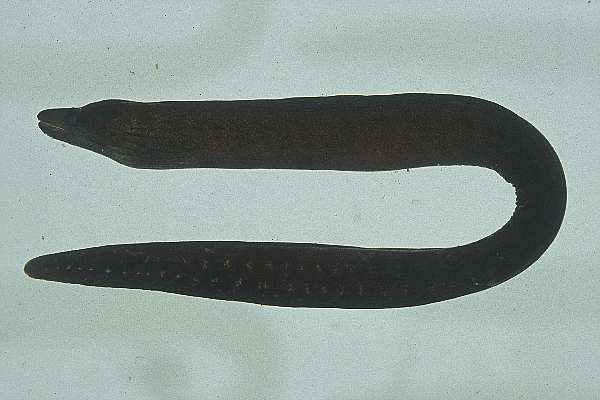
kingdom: Animalia
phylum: Chordata
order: Anguilliformes
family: Muraenidae
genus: Gymnothorax
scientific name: Gymnothorax margaritophorus
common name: Blotch-necked moray
